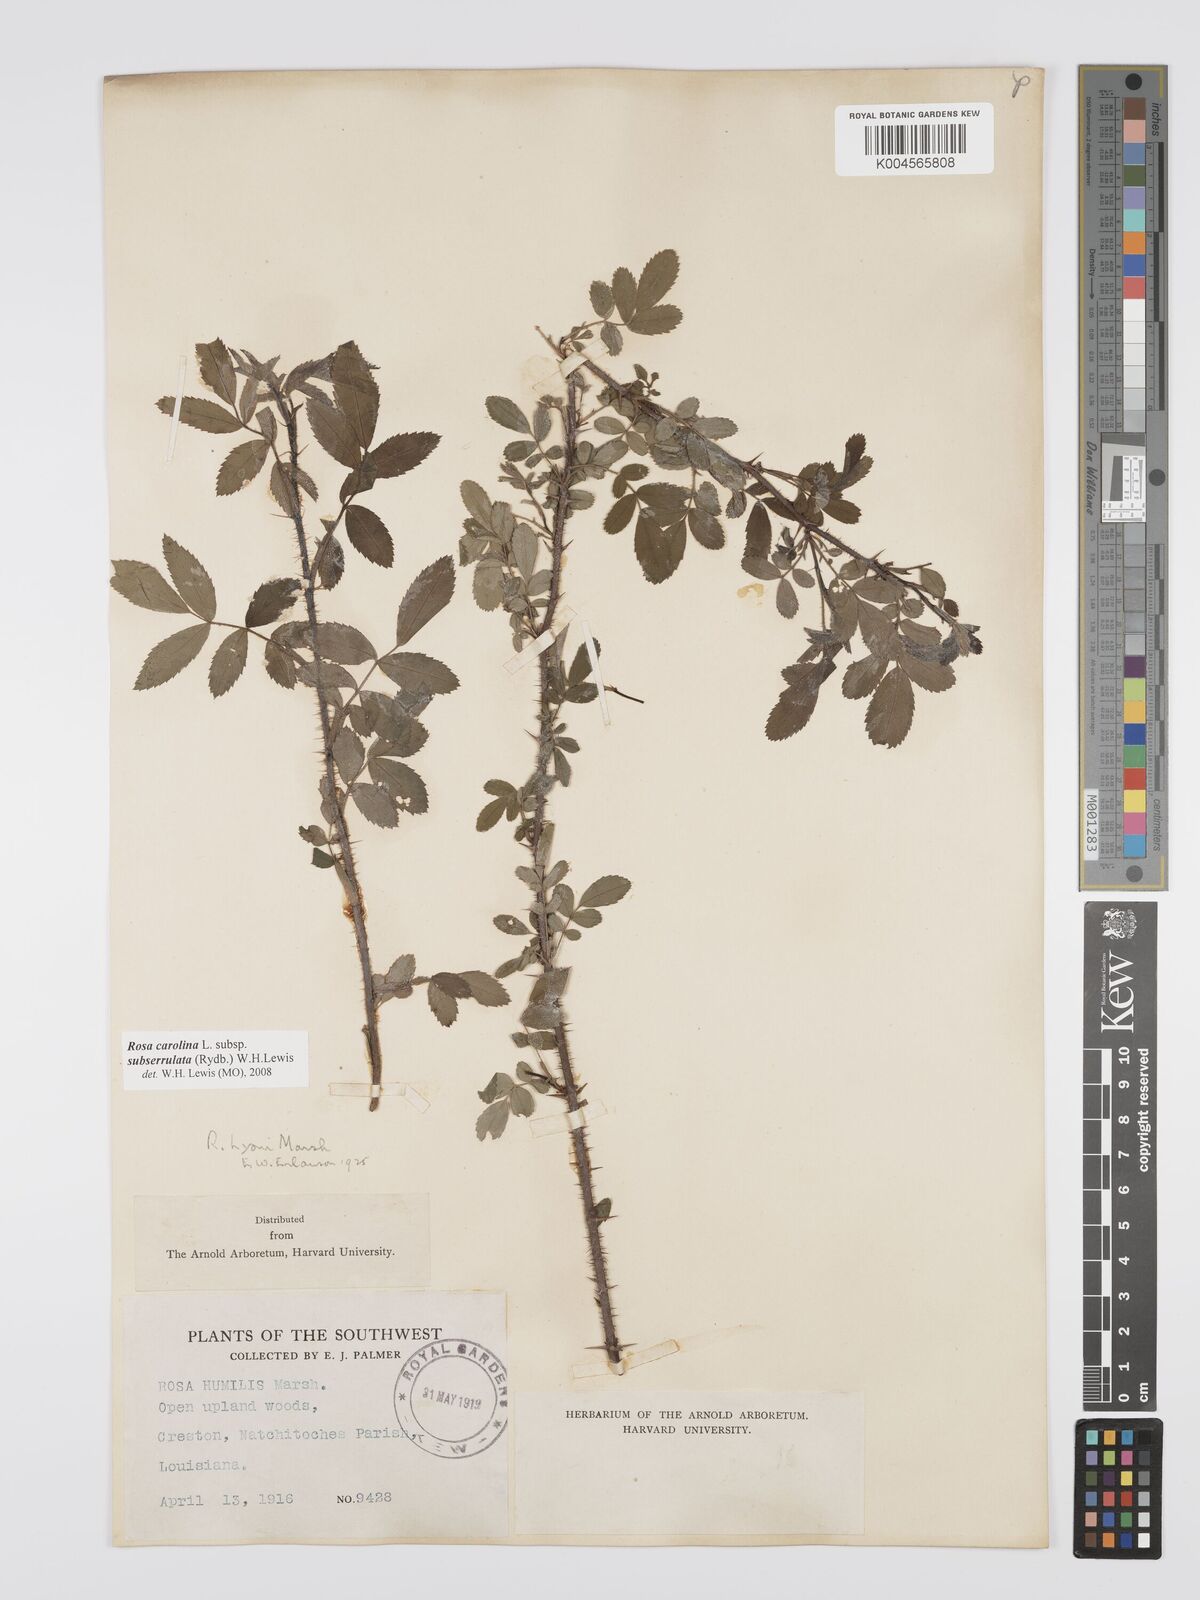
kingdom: Plantae
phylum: Tracheophyta
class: Magnoliopsida
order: Rosales
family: Rosaceae
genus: Rosa
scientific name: Rosa carolina
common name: Pasture rose
